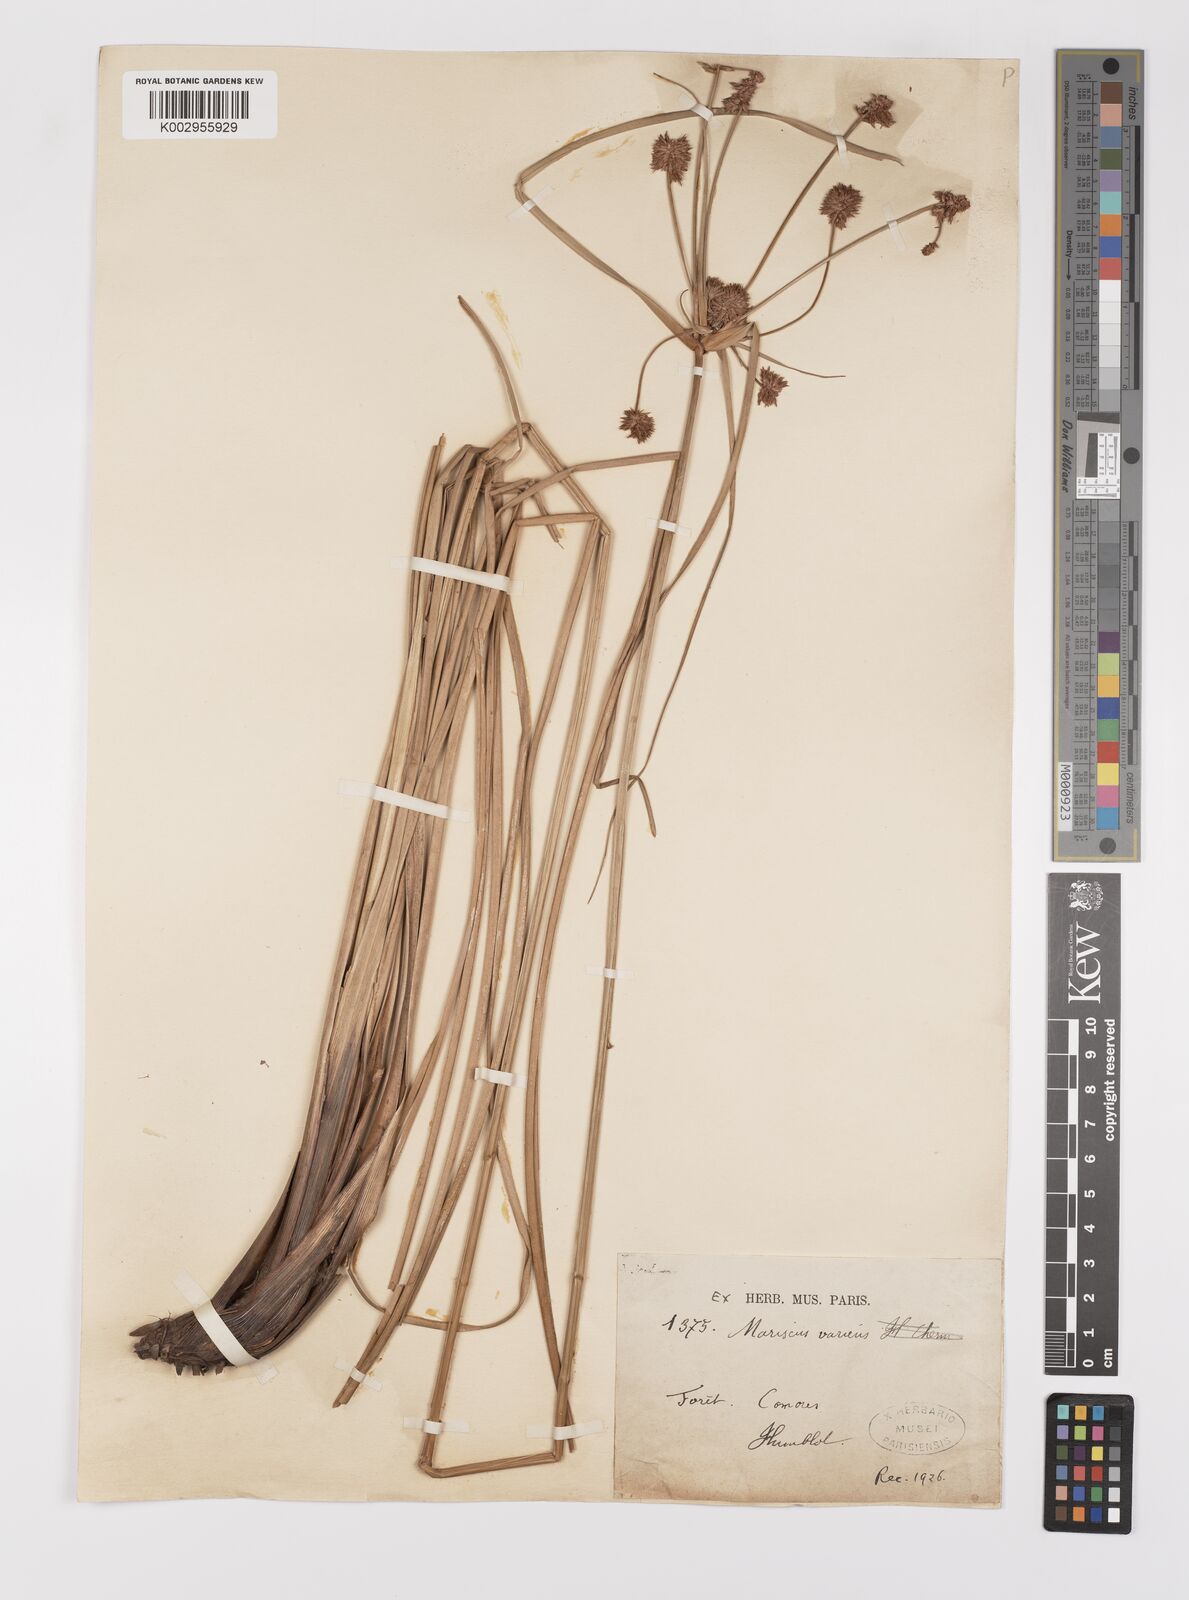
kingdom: Plantae
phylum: Tracheophyta
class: Liliopsida
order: Poales
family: Cyperaceae
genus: Cyperus
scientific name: Cyperus varicus
